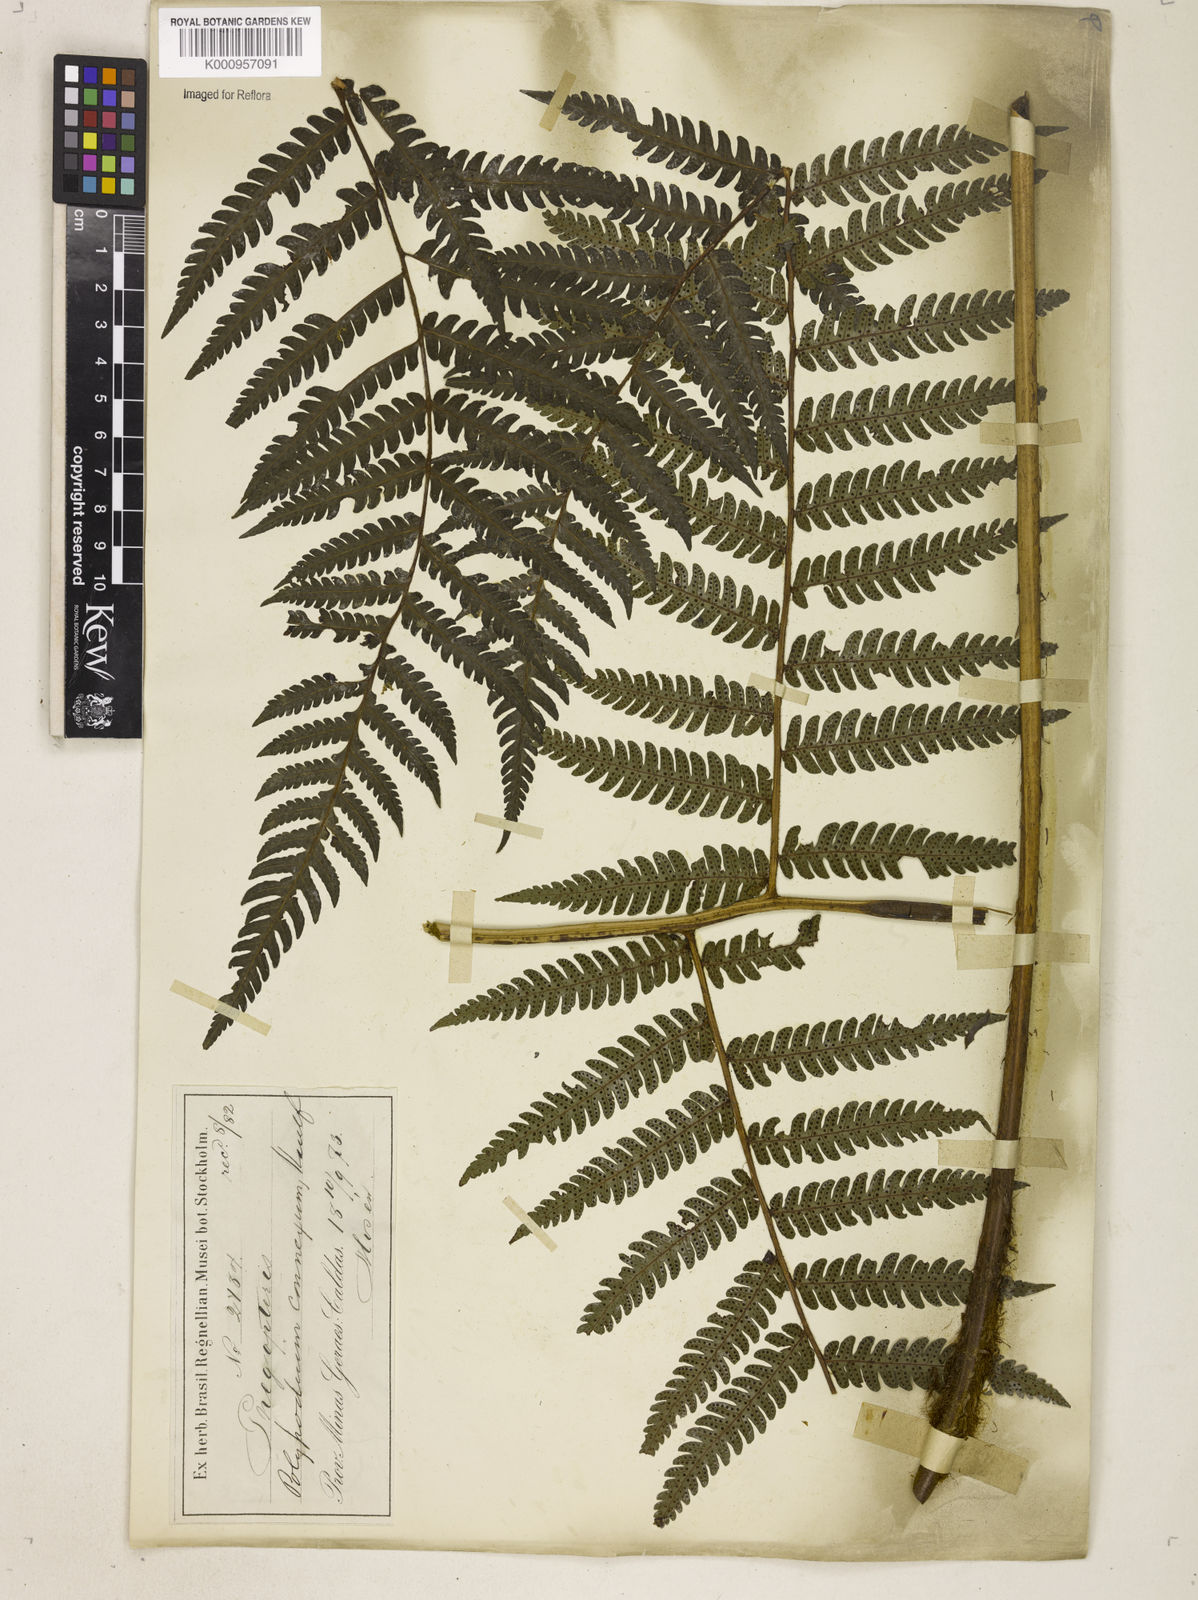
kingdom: Plantae
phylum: Tracheophyta
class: Polypodiopsida
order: Polypodiales
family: Dryopteridaceae
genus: Megalastrum
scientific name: Megalastrum connexum
